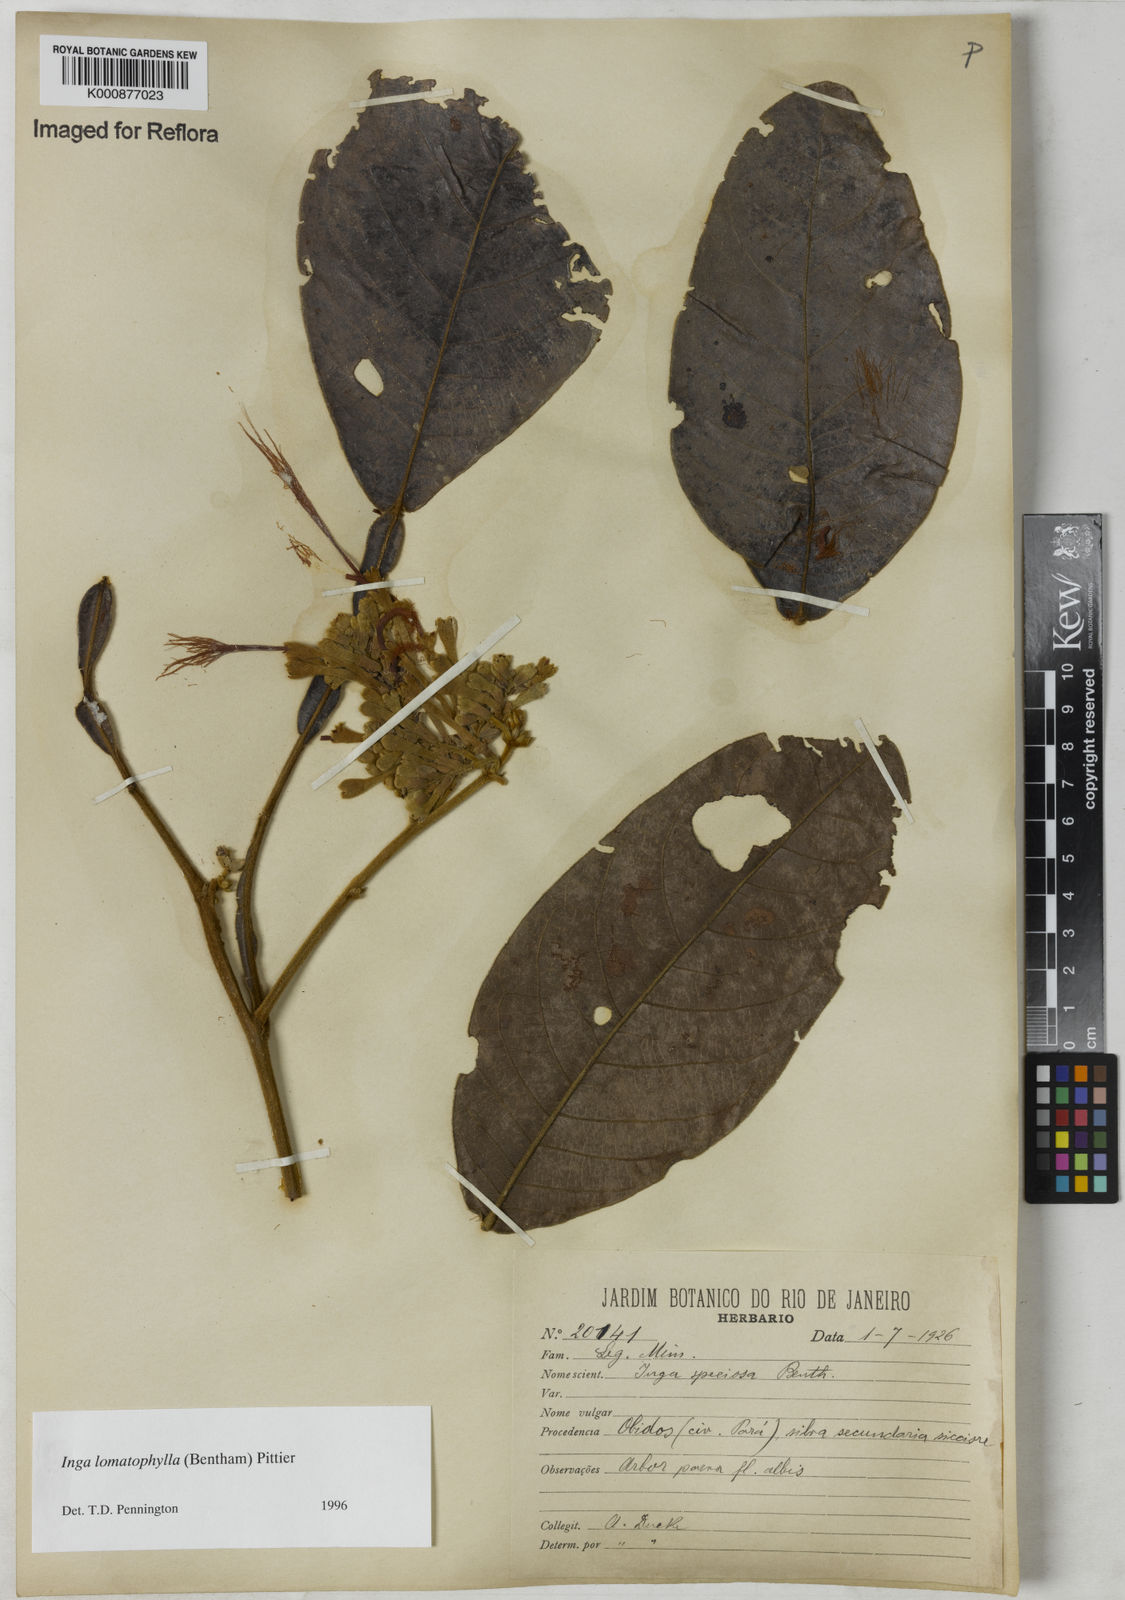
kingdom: Plantae
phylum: Tracheophyta
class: Magnoliopsida
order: Fabales
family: Fabaceae
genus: Inga
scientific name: Inga lomatophylla
